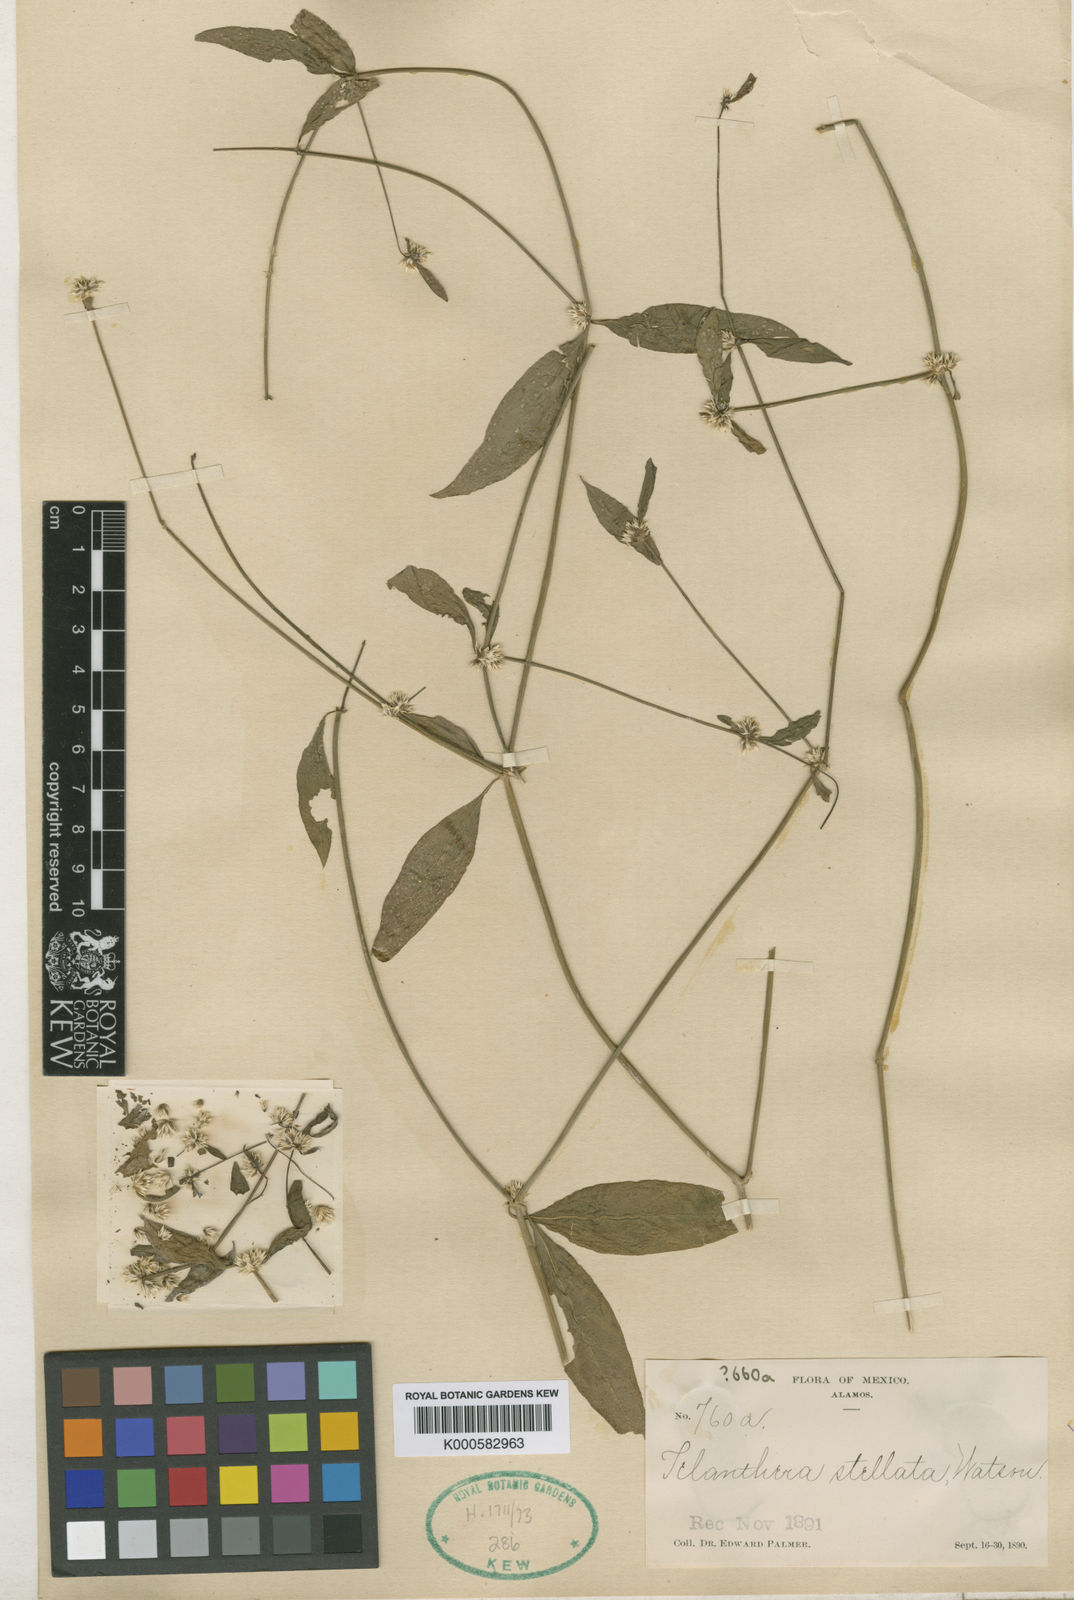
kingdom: Plantae
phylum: Tracheophyta
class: Magnoliopsida
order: Caryophyllales
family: Amaranthaceae
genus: Alternanthera
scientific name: Alternanthera stellata
